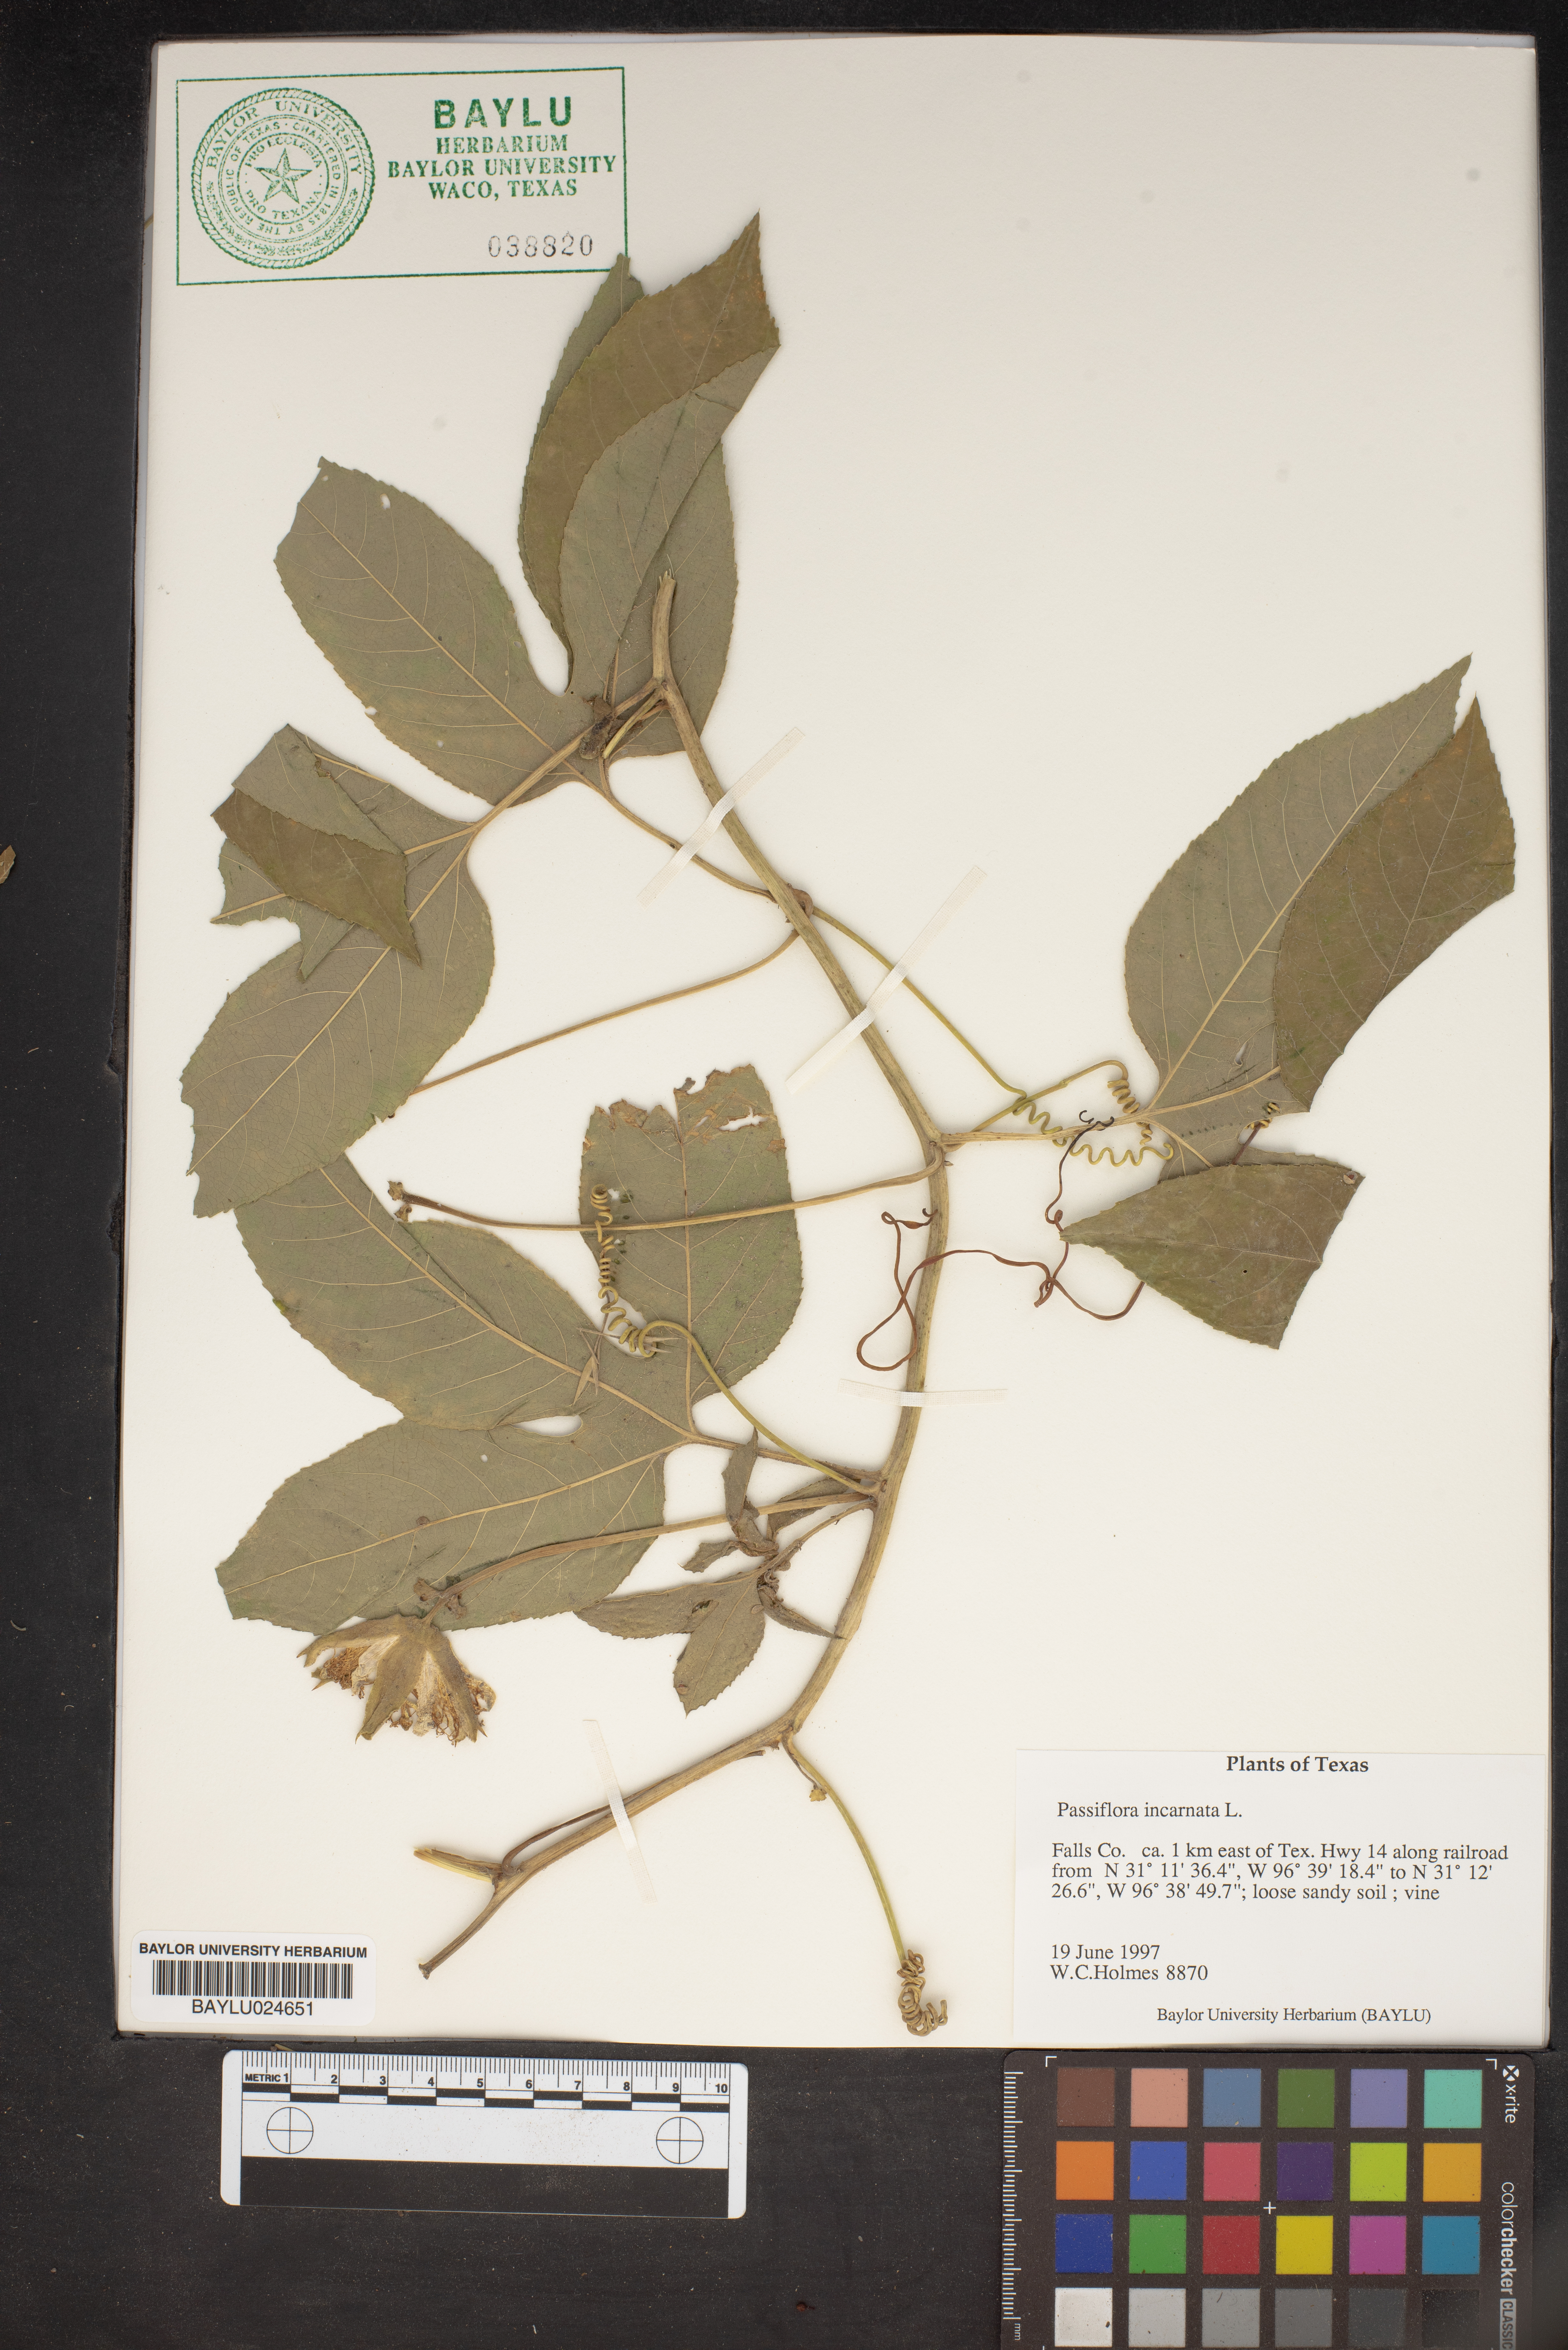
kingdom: Plantae
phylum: Tracheophyta
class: Magnoliopsida
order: Malpighiales
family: Passifloraceae
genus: Passiflora
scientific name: Passiflora incarnata
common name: Apricot-vine
